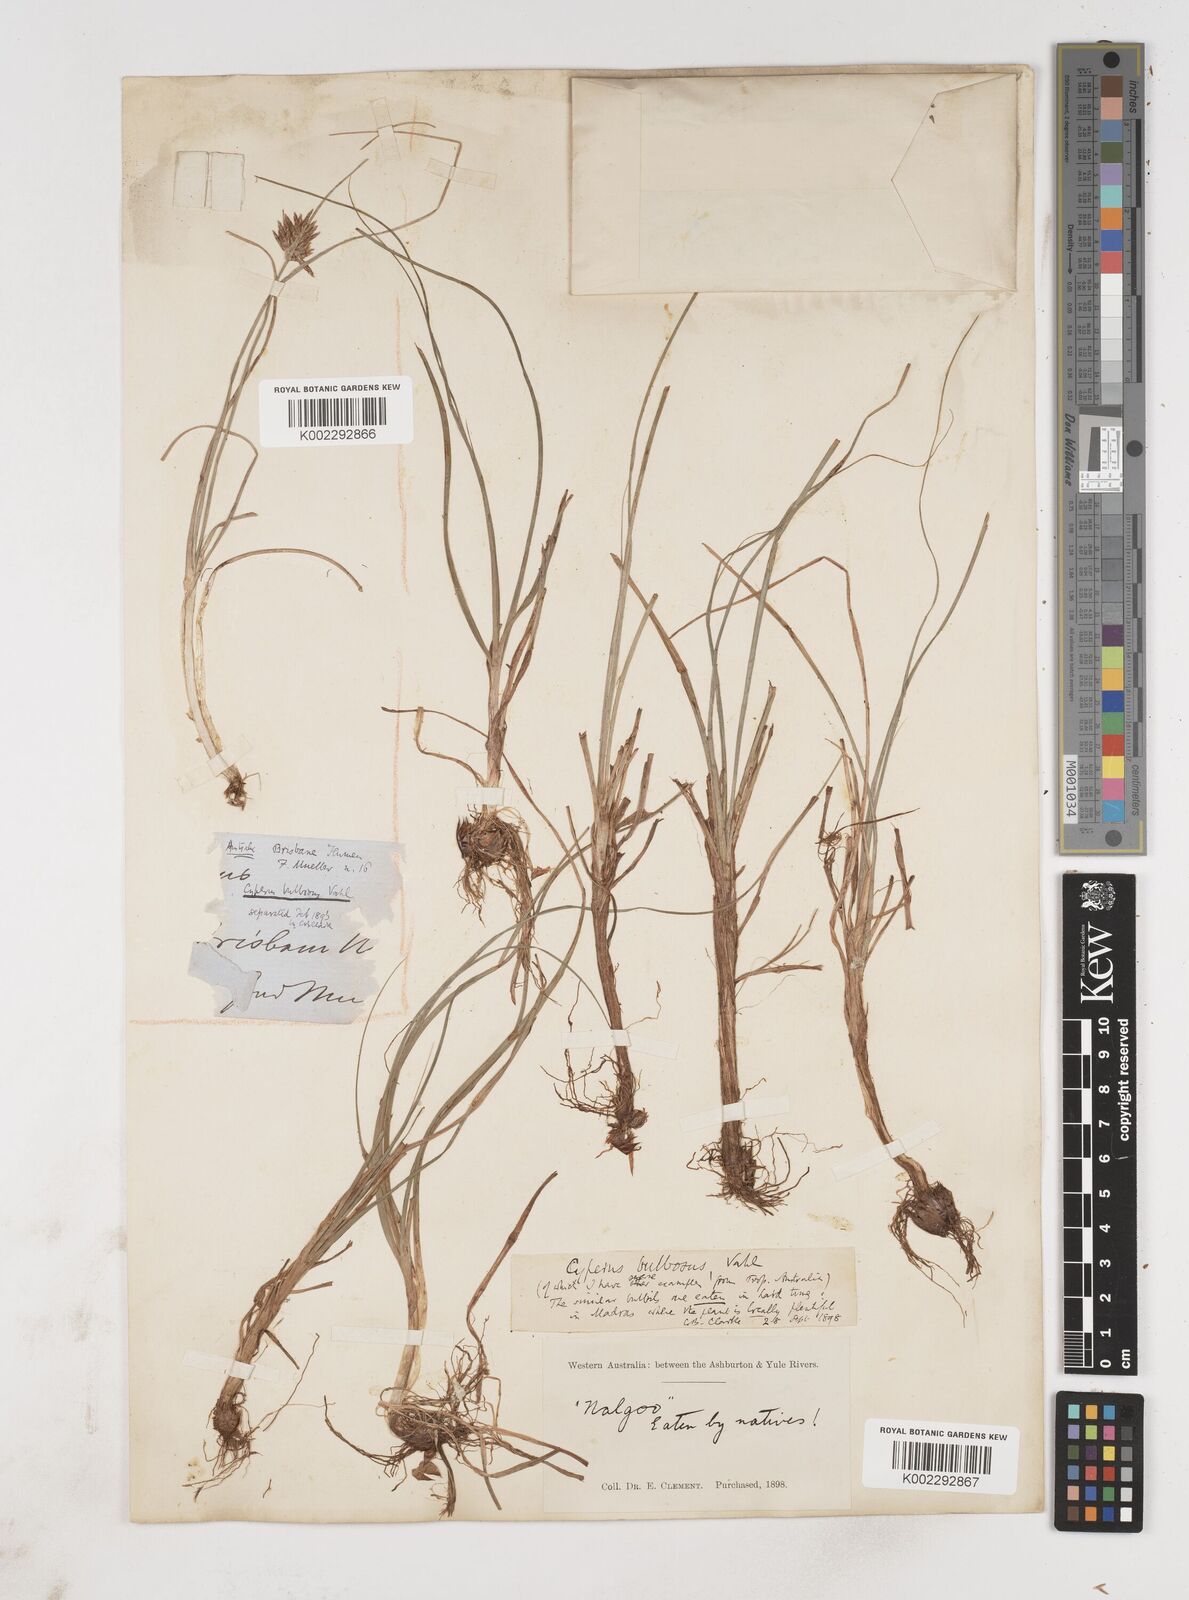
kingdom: Plantae
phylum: Tracheophyta
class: Liliopsida
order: Poales
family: Cyperaceae
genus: Cyperus
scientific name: Cyperus bulbosus
